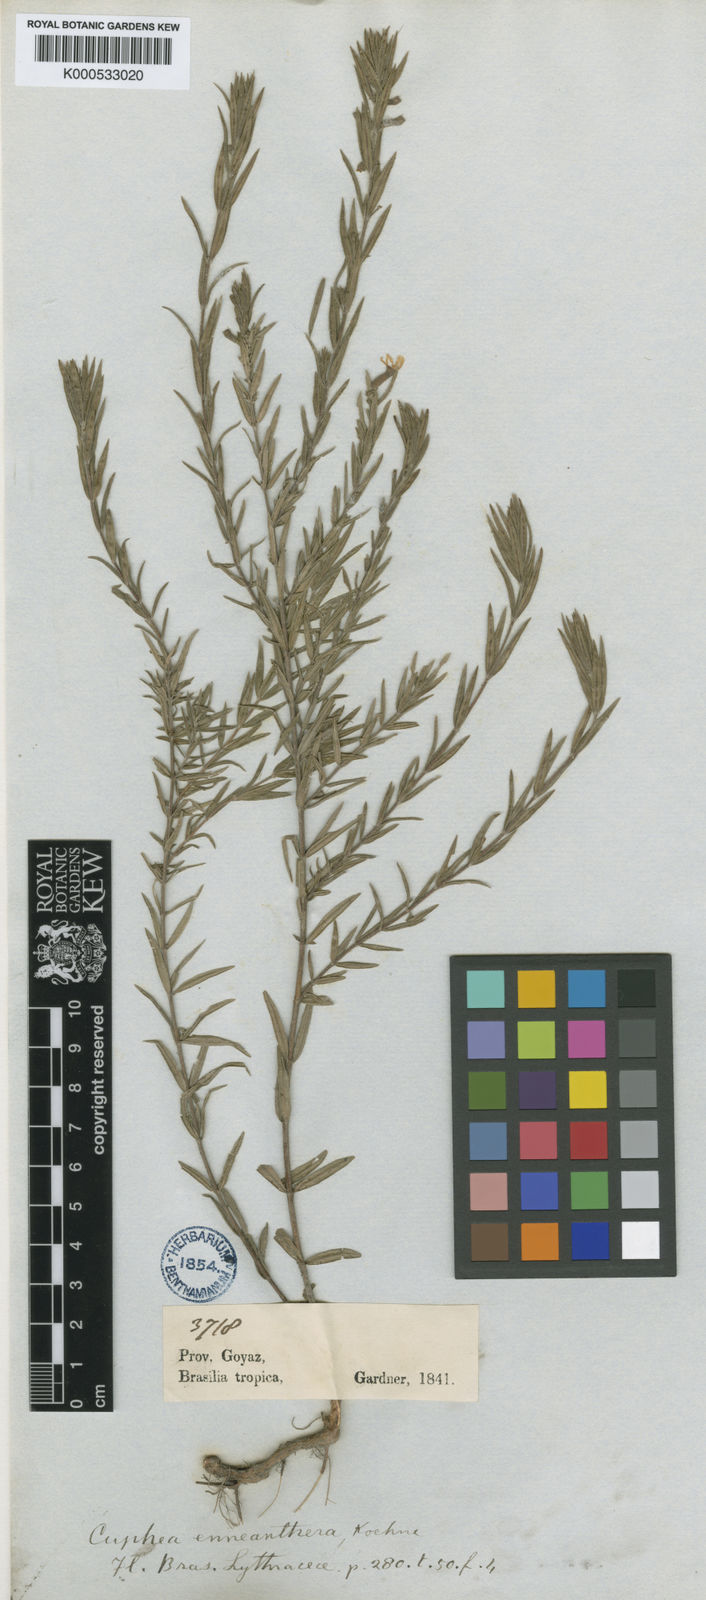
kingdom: Plantae
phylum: Tracheophyta
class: Magnoliopsida
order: Myrtales
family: Lythraceae
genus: Cuphea
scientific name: Cuphea
